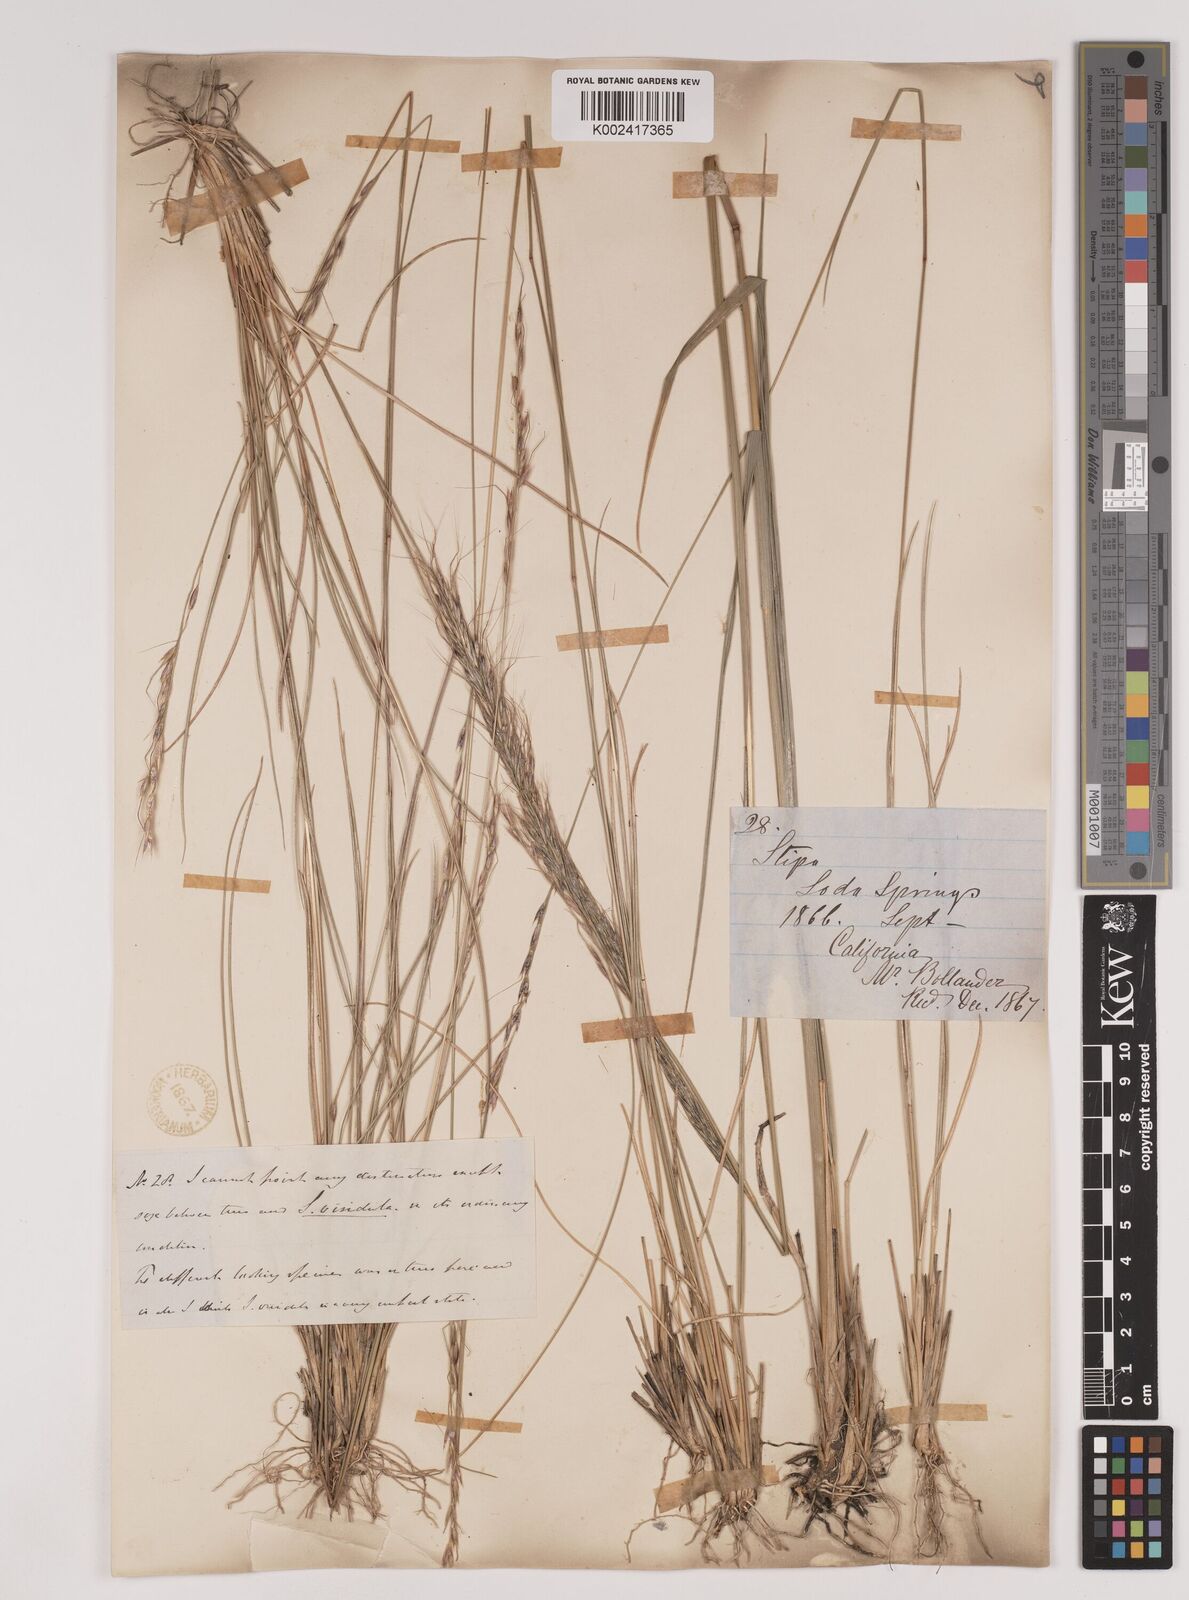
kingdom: Plantae
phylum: Tracheophyta
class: Liliopsida
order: Poales
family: Poaceae
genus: Nassella
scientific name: Nassella viridula
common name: Green needlegrass
